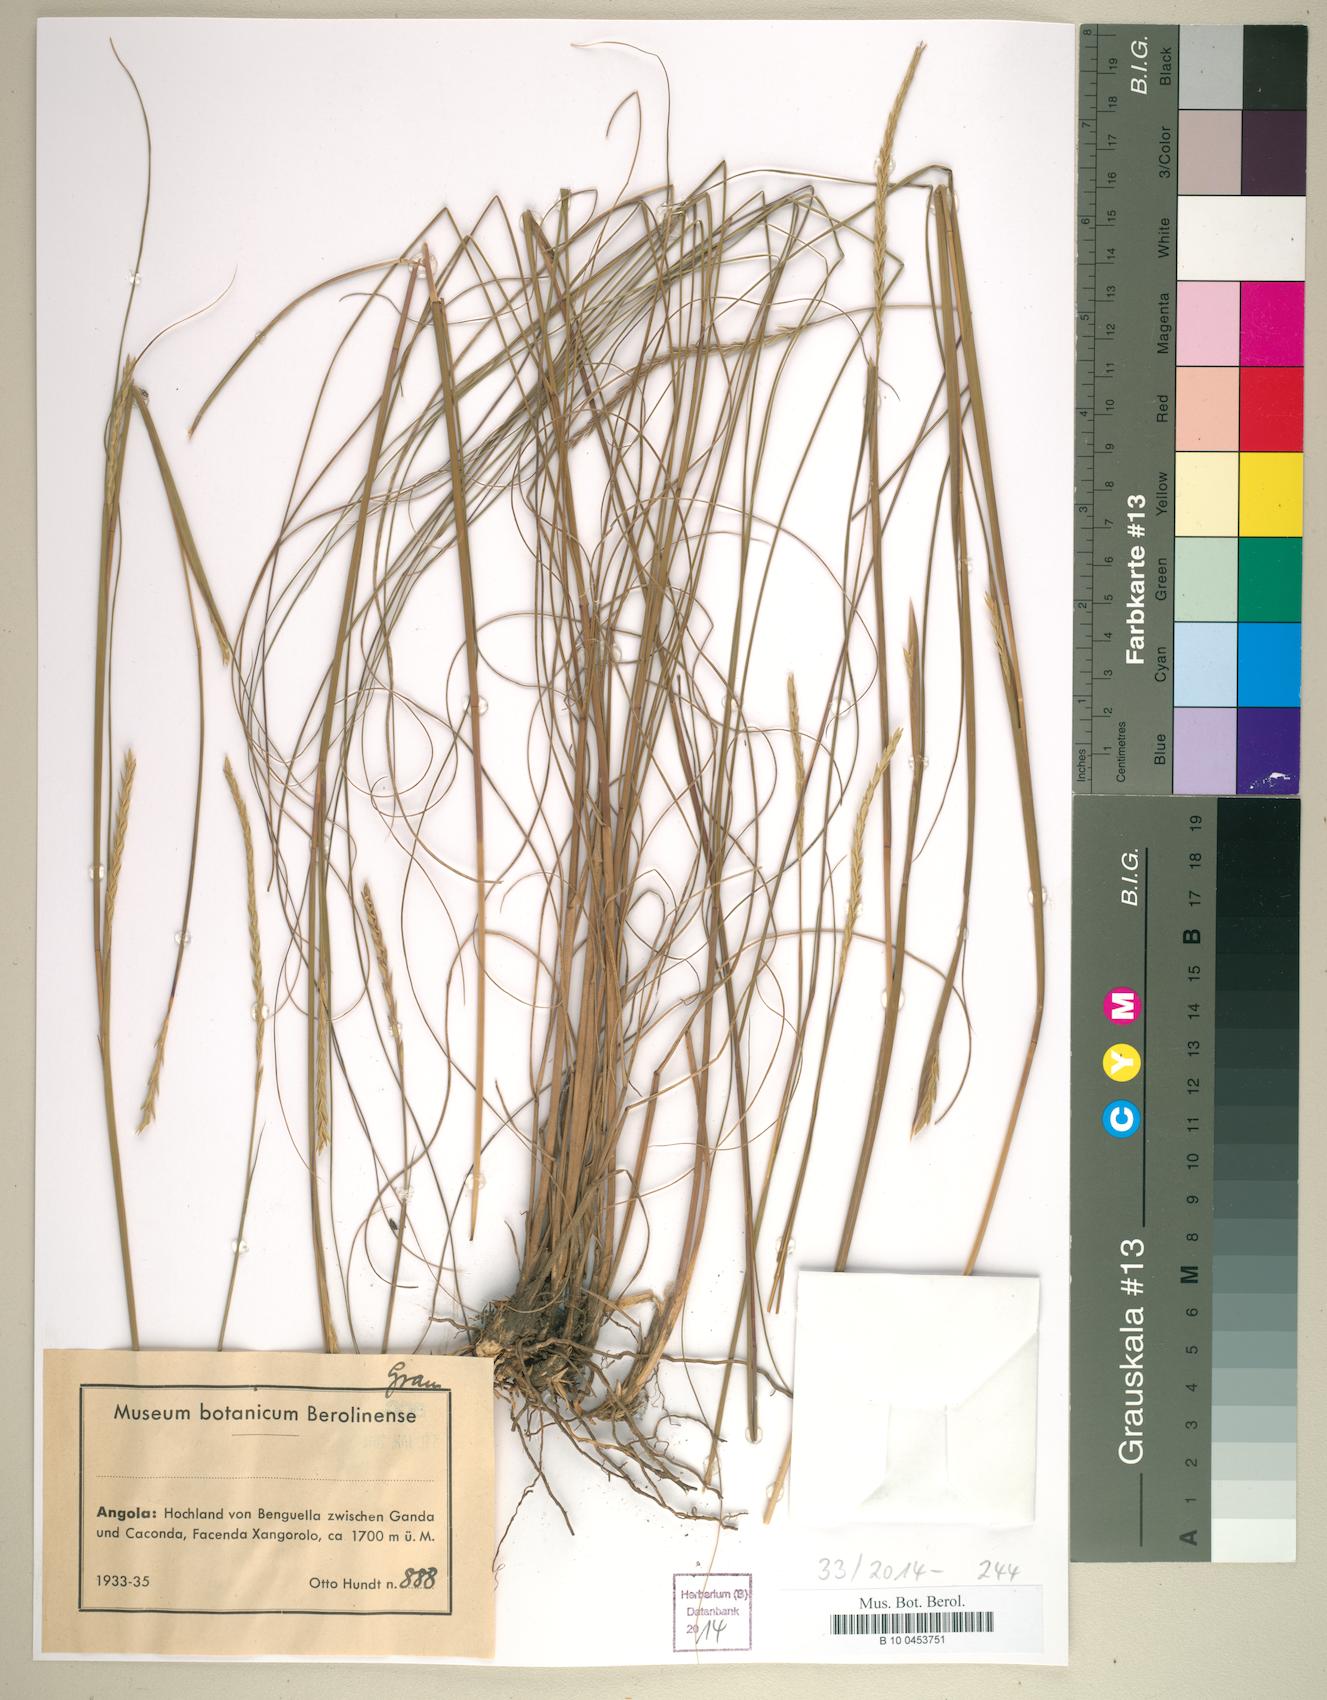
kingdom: Plantae
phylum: Tracheophyta
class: Liliopsida
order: Poales
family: Poaceae
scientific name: Poaceae
